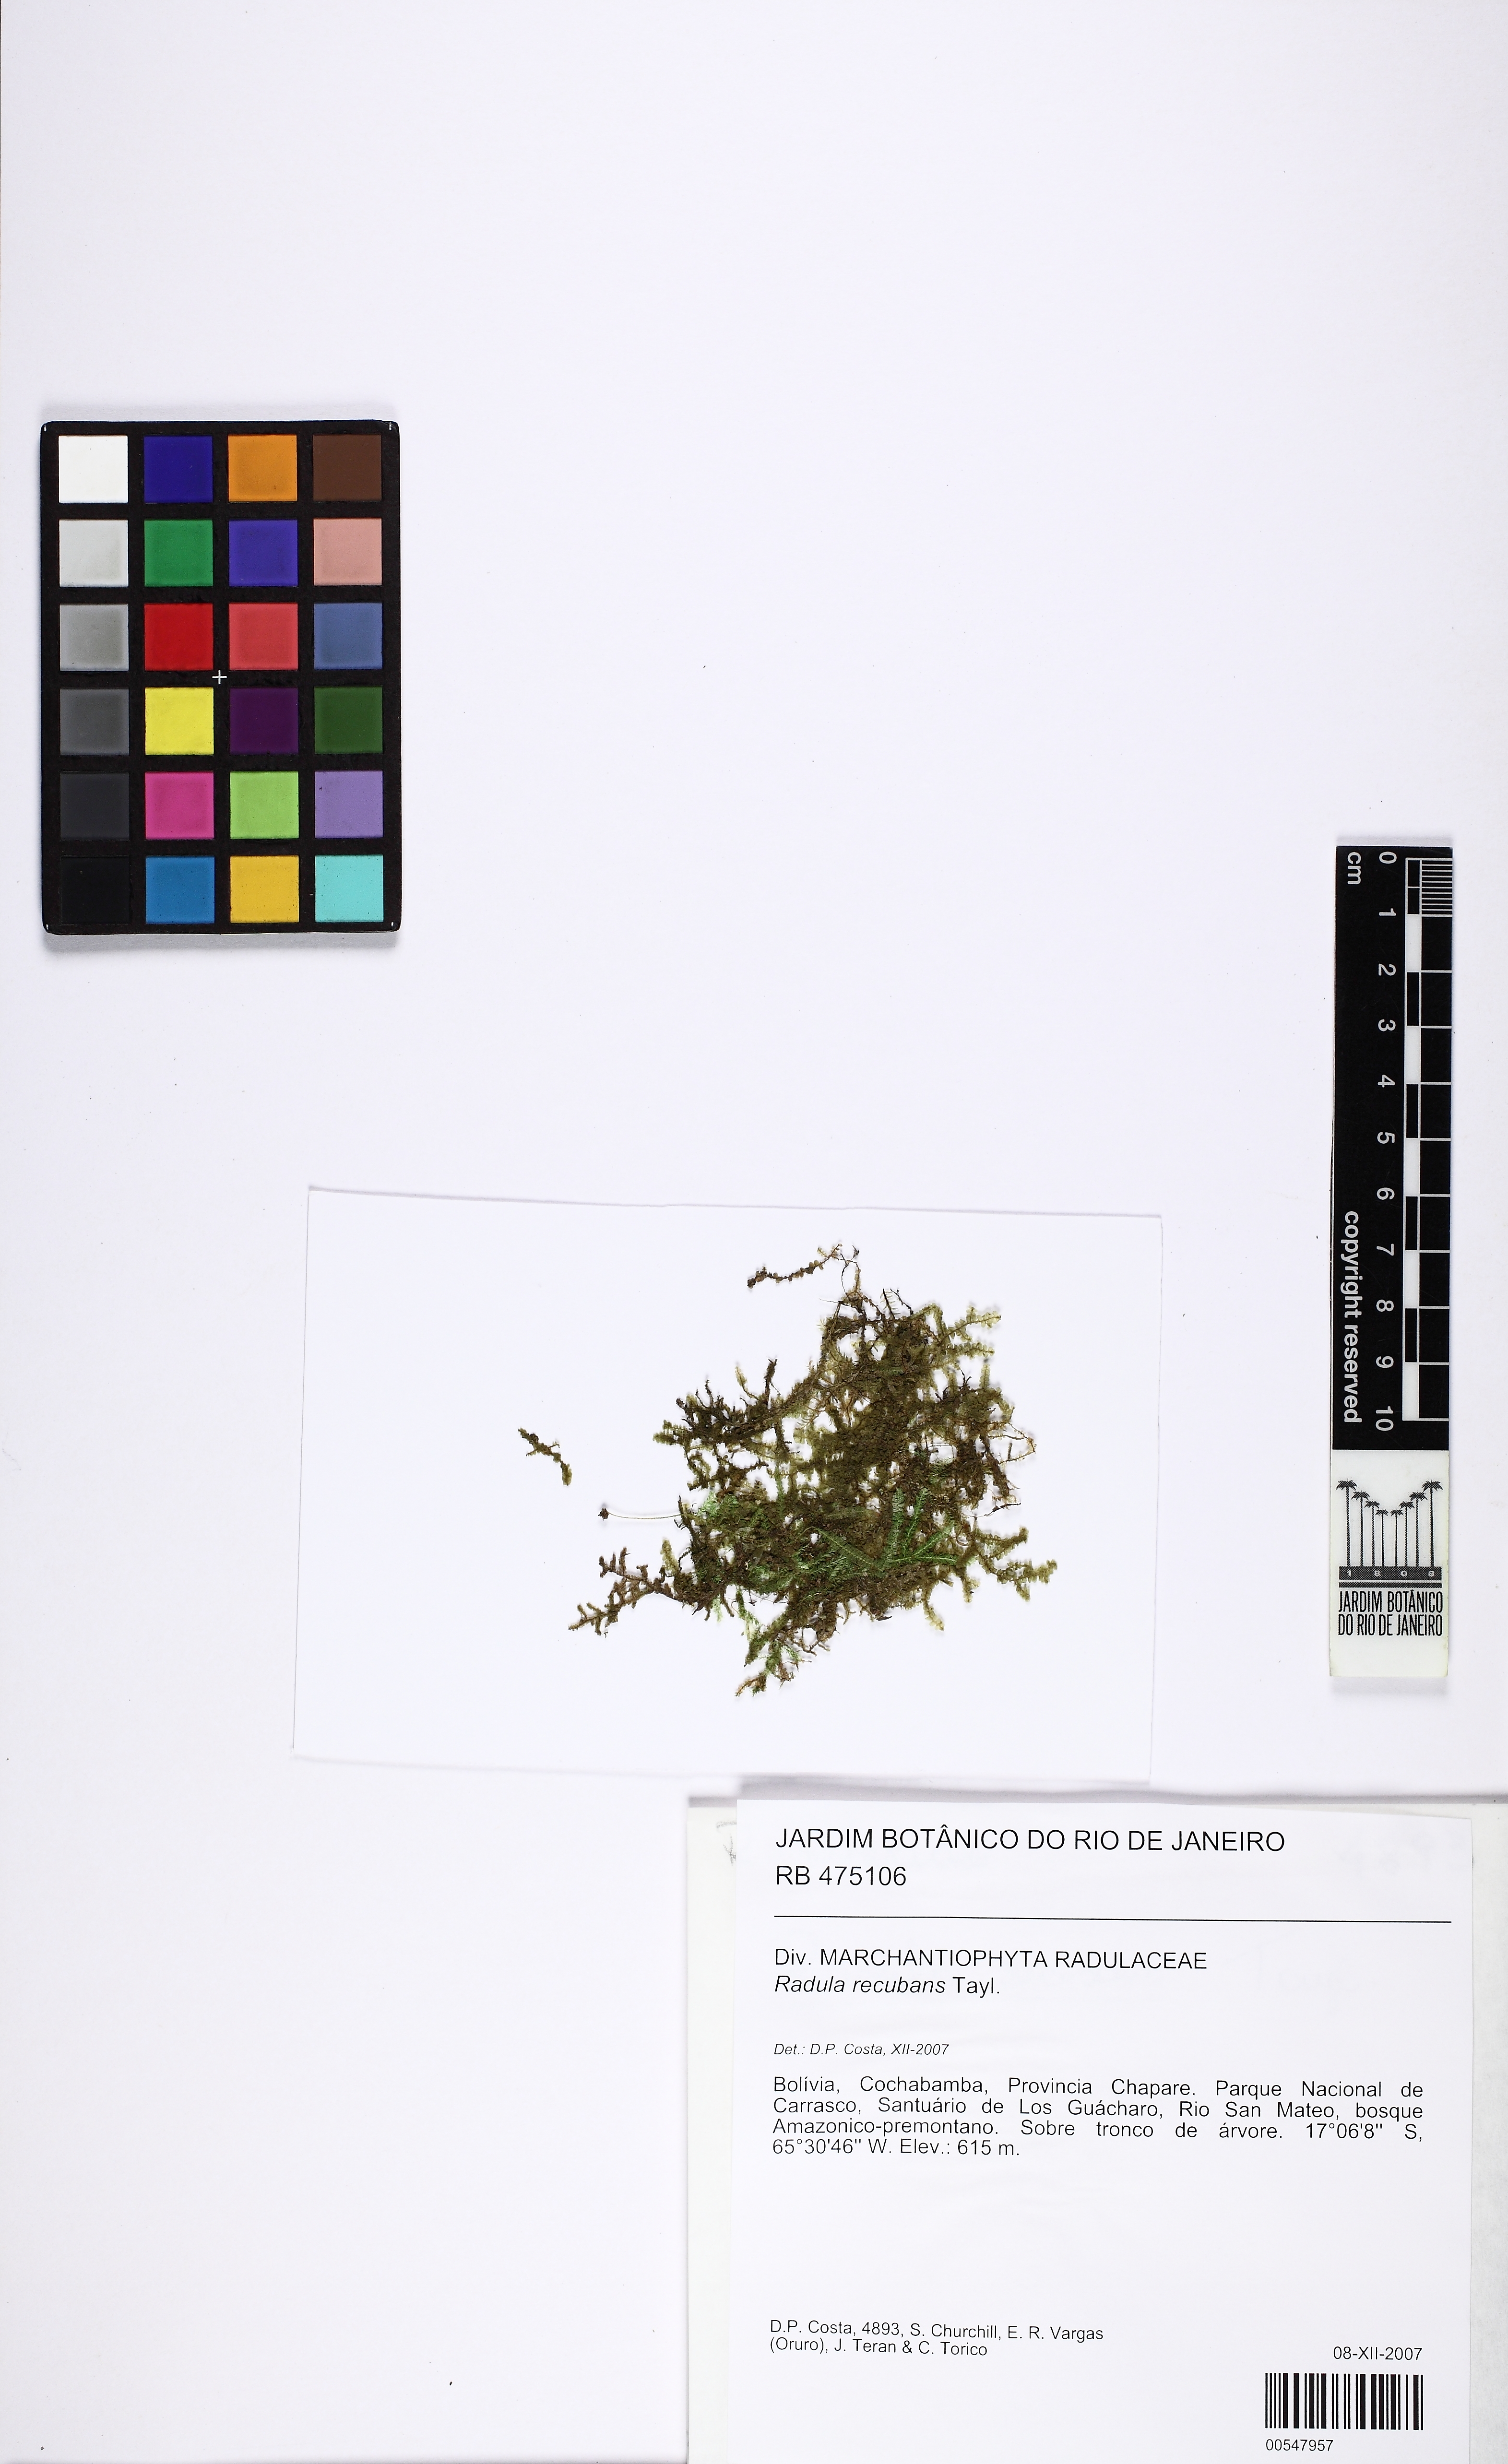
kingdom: Plantae
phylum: Marchantiophyta
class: Jungermanniopsida
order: Porellales
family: Radulaceae
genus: Radula
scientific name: Radula recubans
